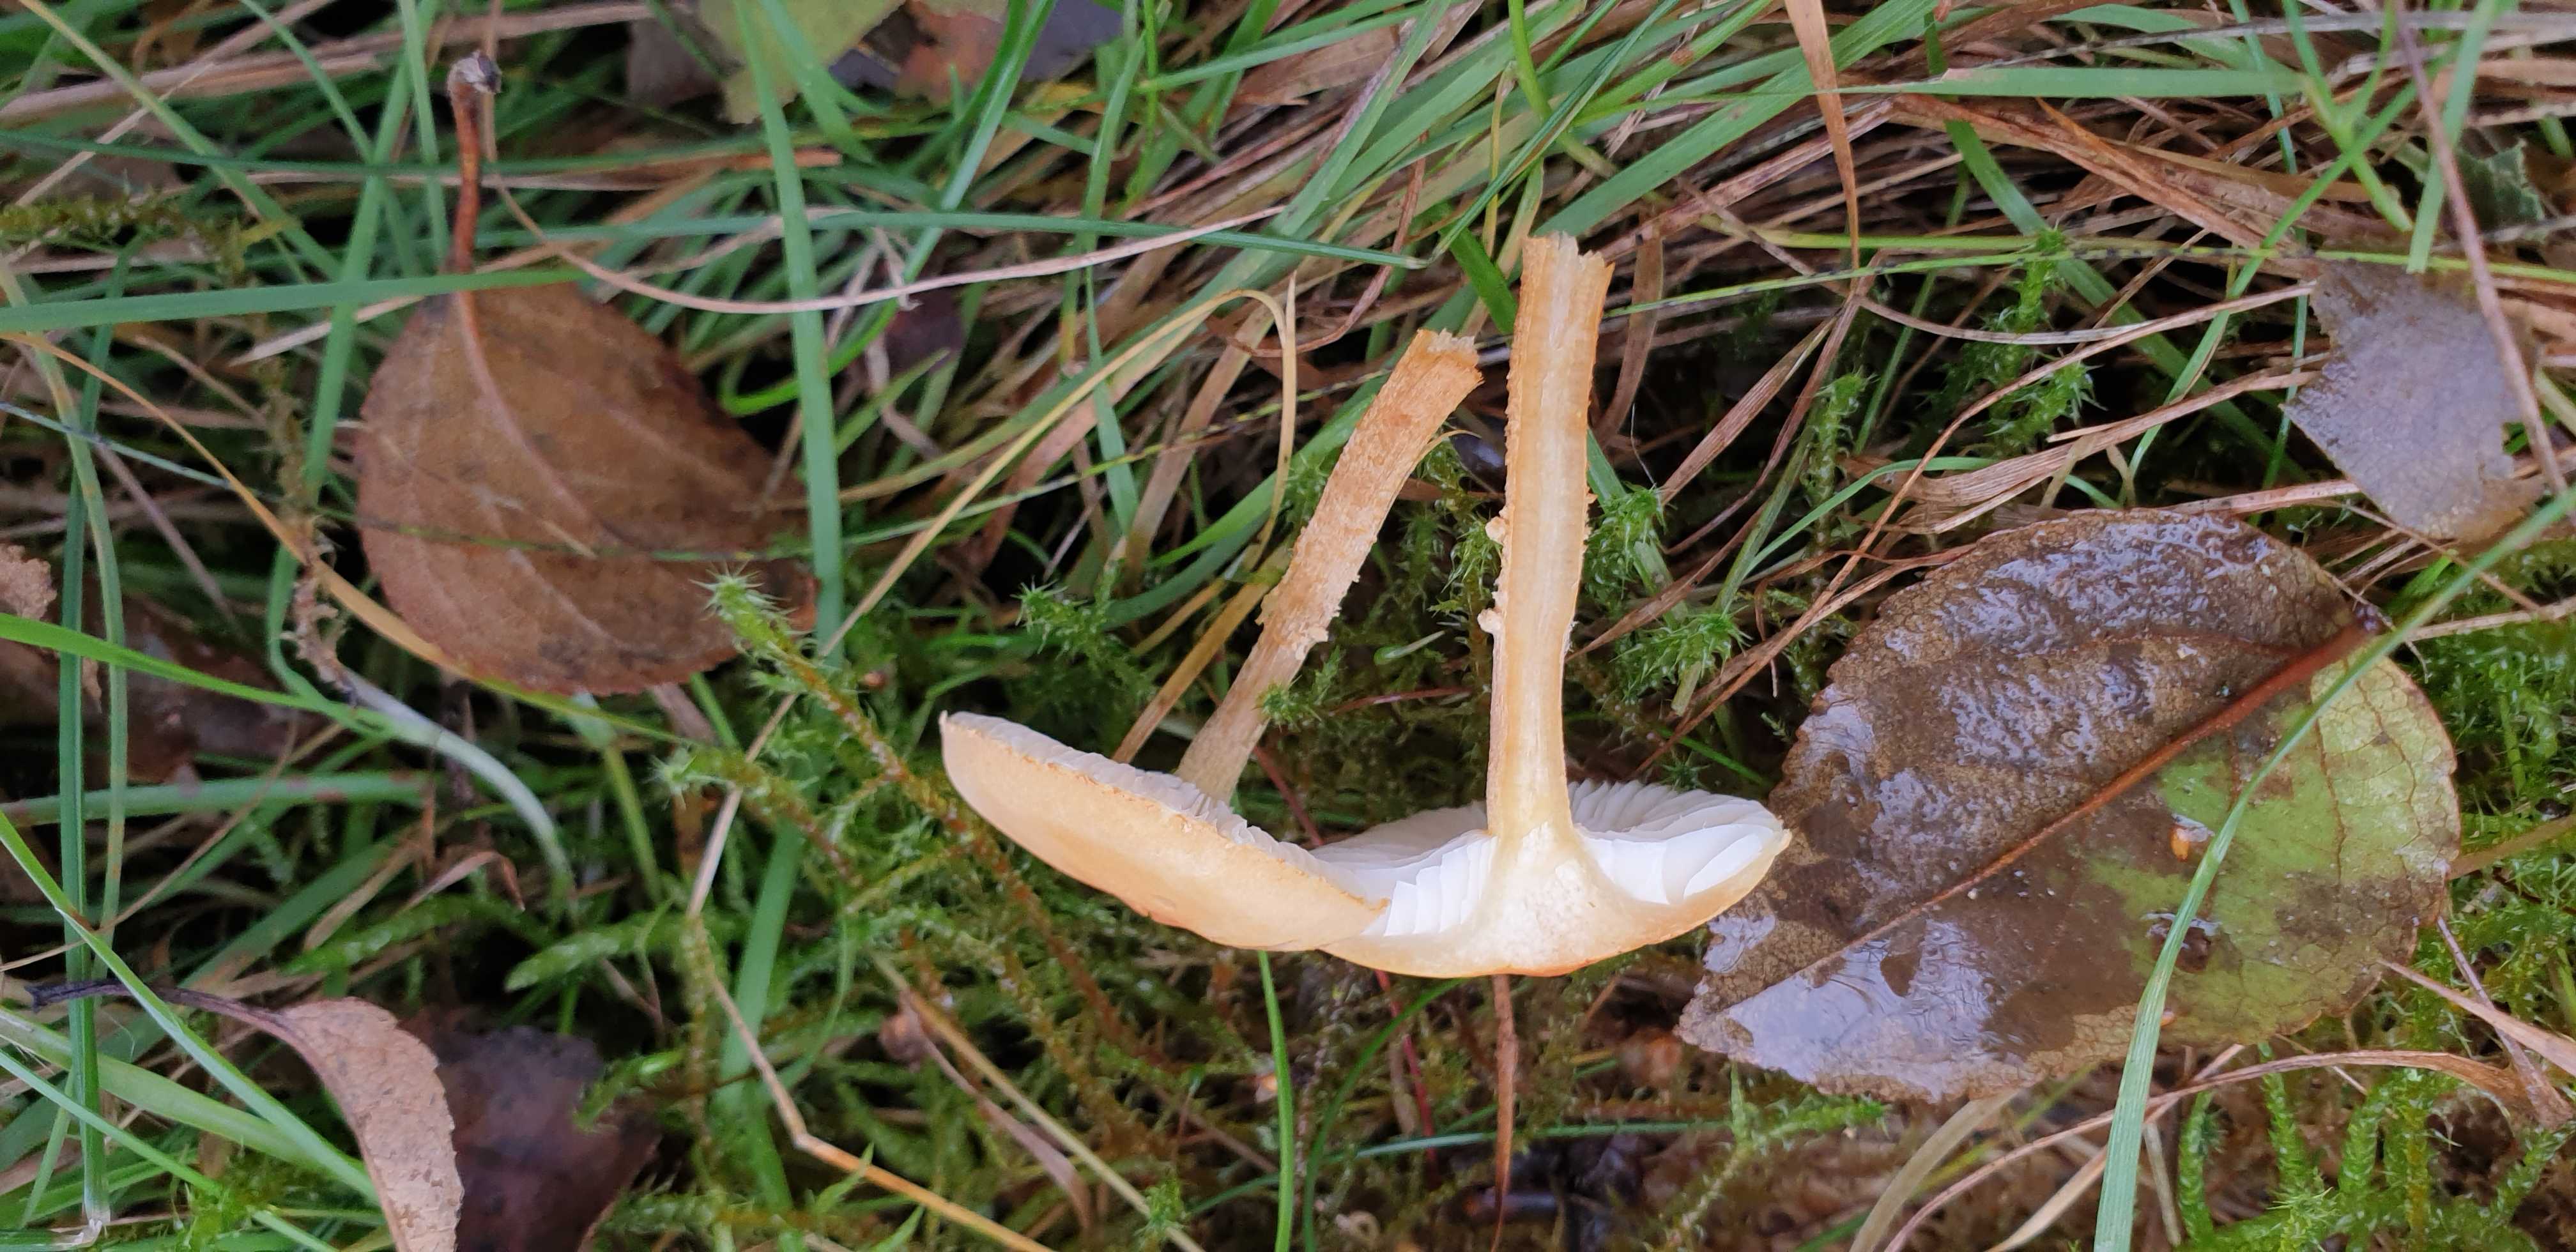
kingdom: Fungi
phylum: Basidiomycota
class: Agaricomycetes
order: Agaricales
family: Tricholomataceae
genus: Cystoderma
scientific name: Cystoderma amianthinum
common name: okkergul grynhat
